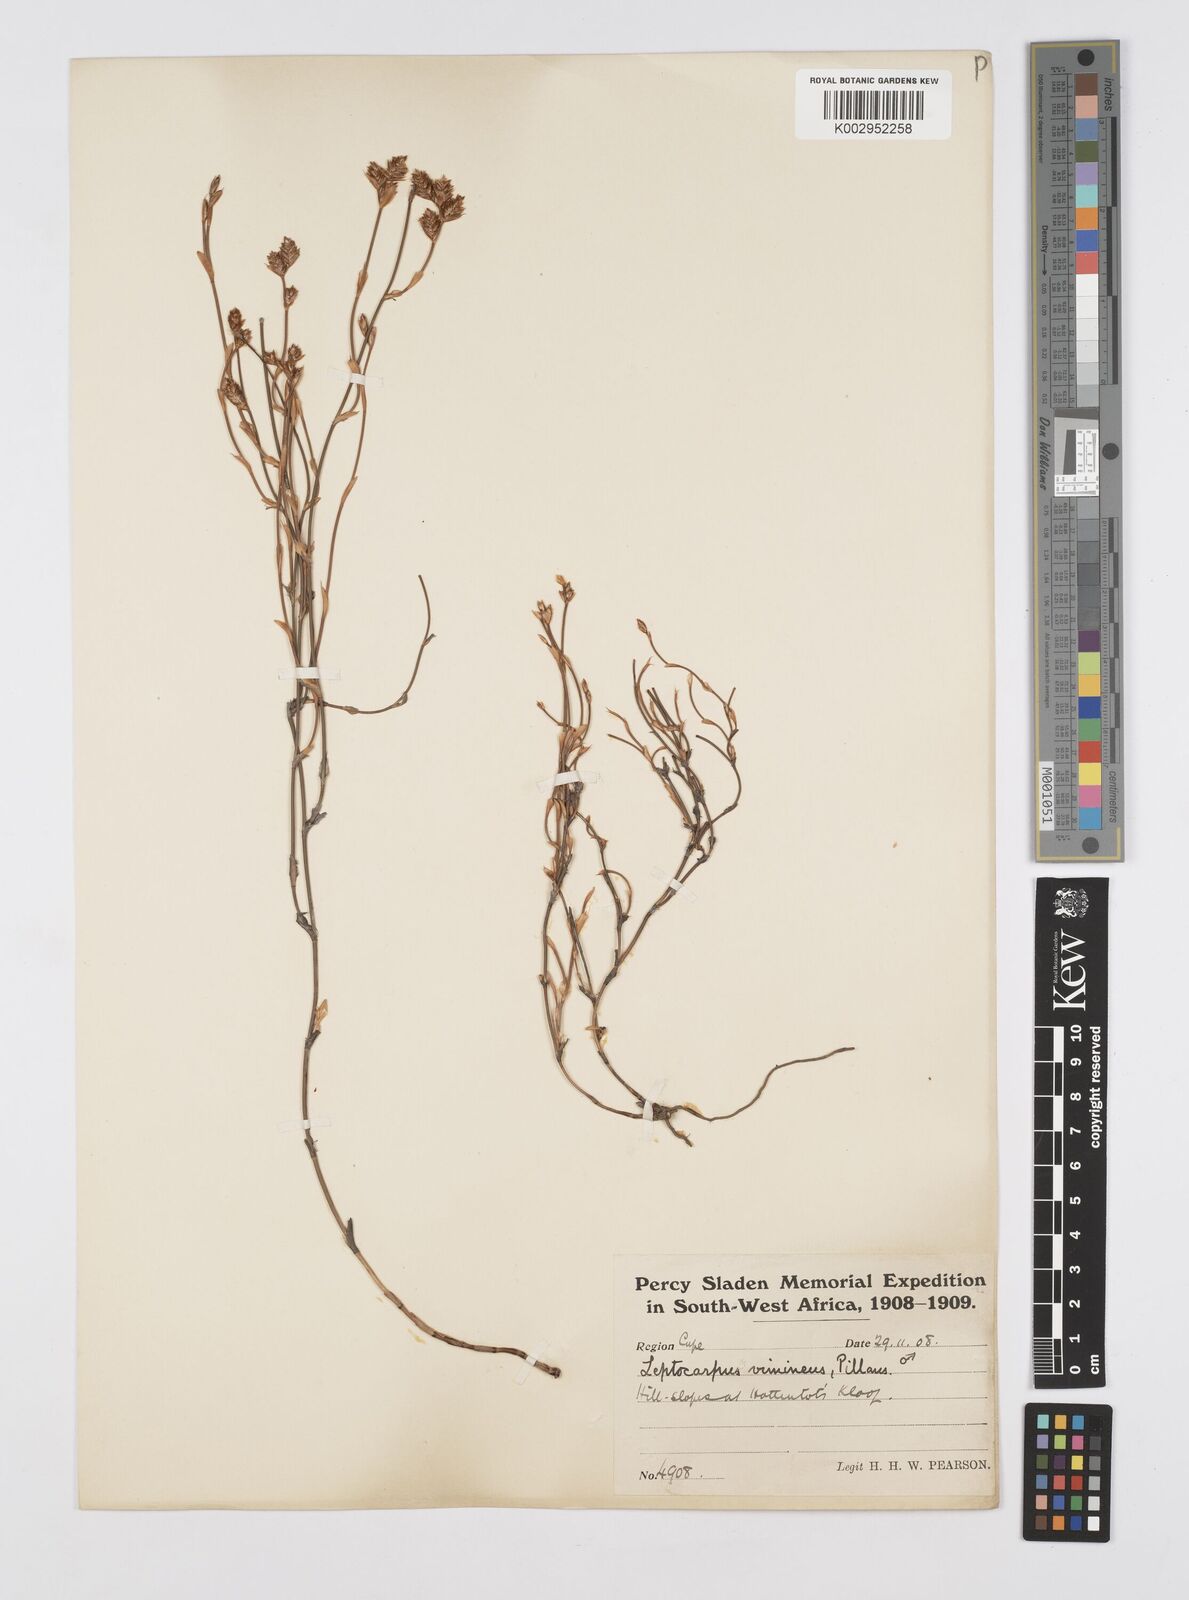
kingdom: Plantae
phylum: Tracheophyta
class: Liliopsida
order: Poales
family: Restionaceae
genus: Restio
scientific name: Restio vimineus
